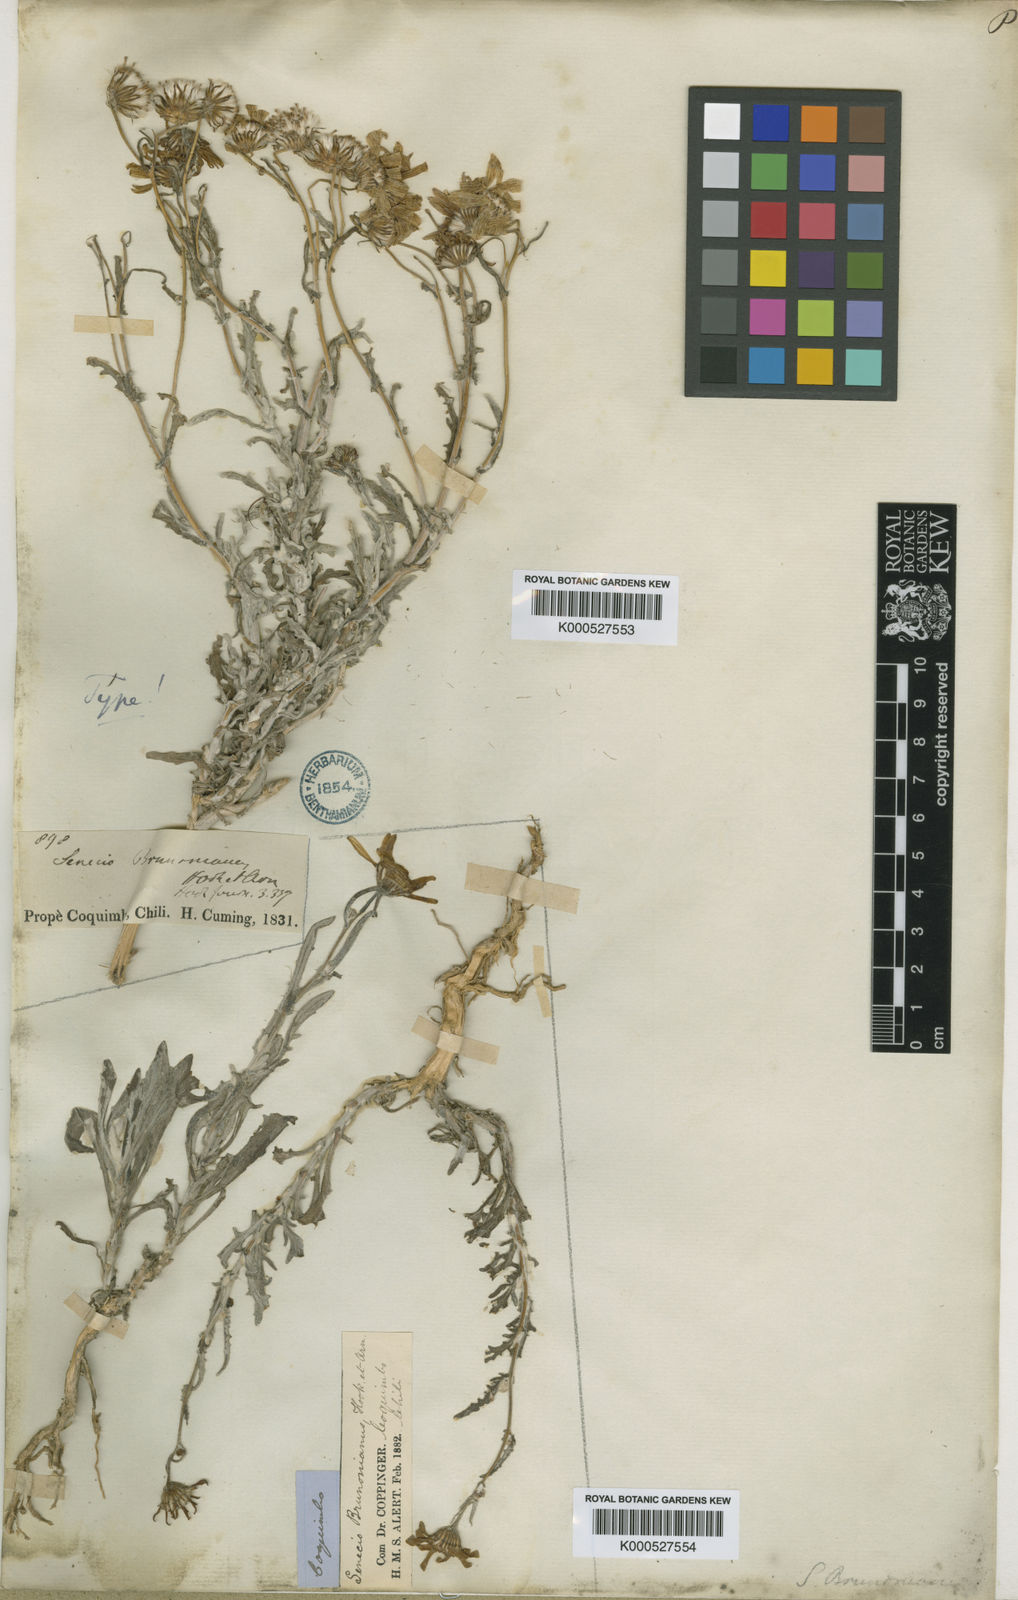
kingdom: Plantae
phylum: Tracheophyta
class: Magnoliopsida
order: Asterales
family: Asteraceae
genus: Senecio
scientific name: Senecio brunonianus
